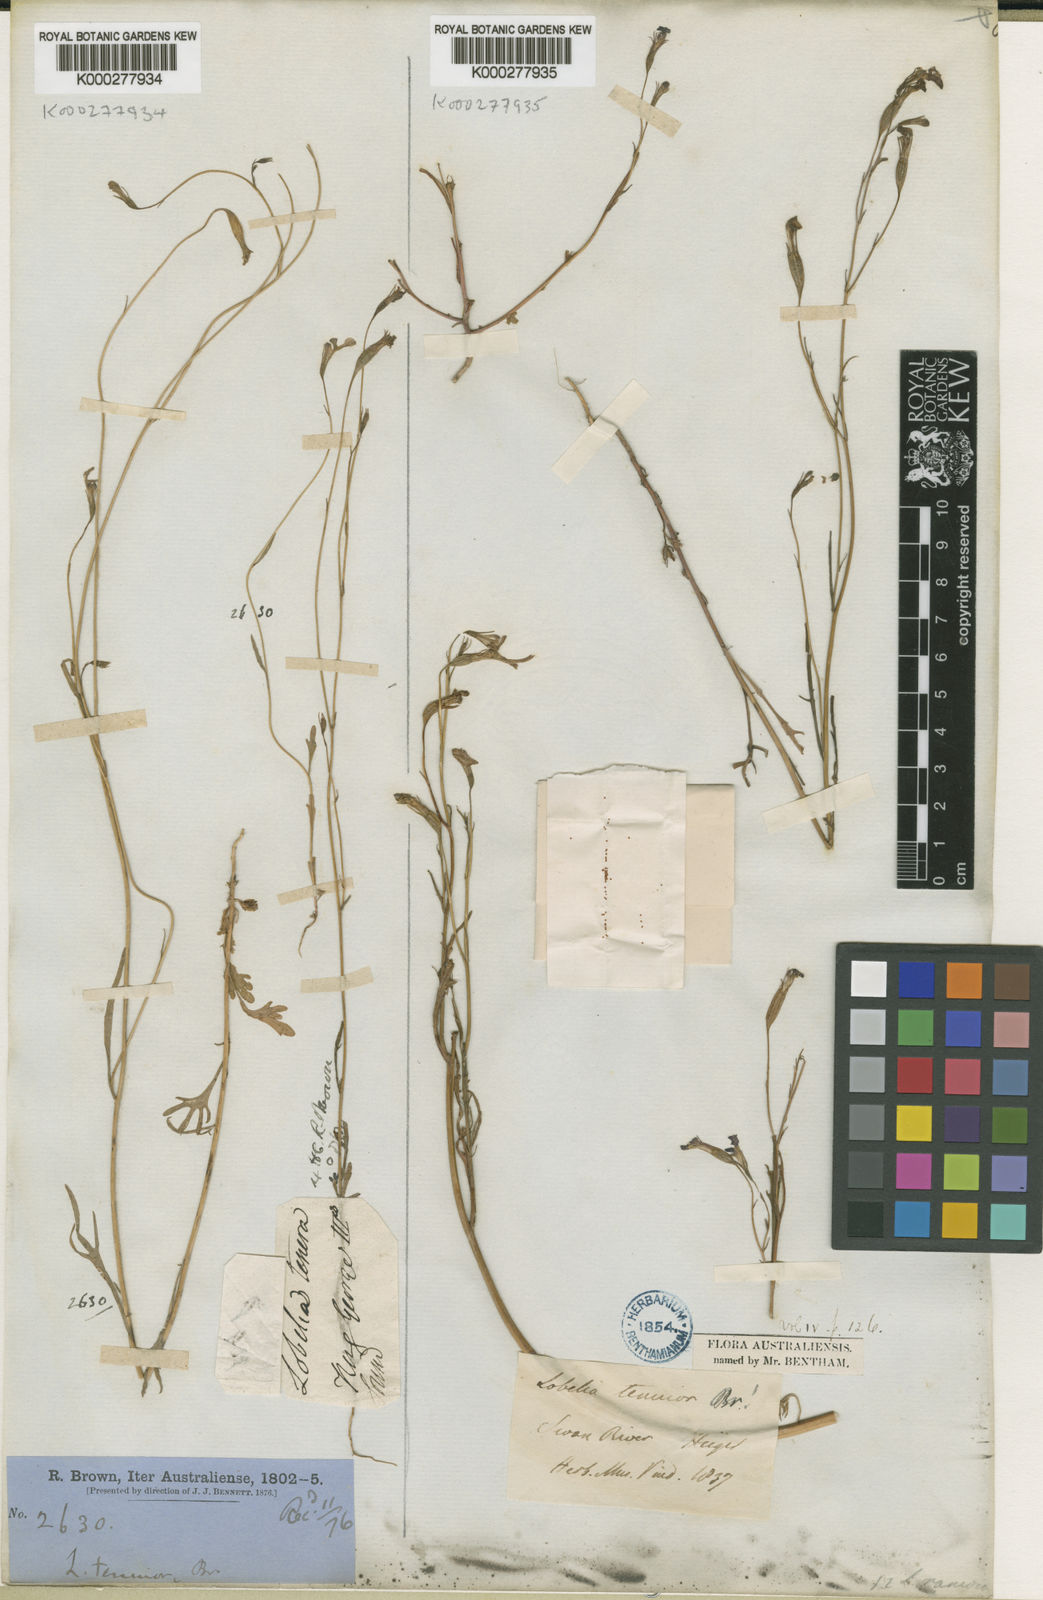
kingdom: Plantae
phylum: Tracheophyta
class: Magnoliopsida
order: Asterales
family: Campanulaceae
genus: Lobelia
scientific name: Lobelia tenuior
